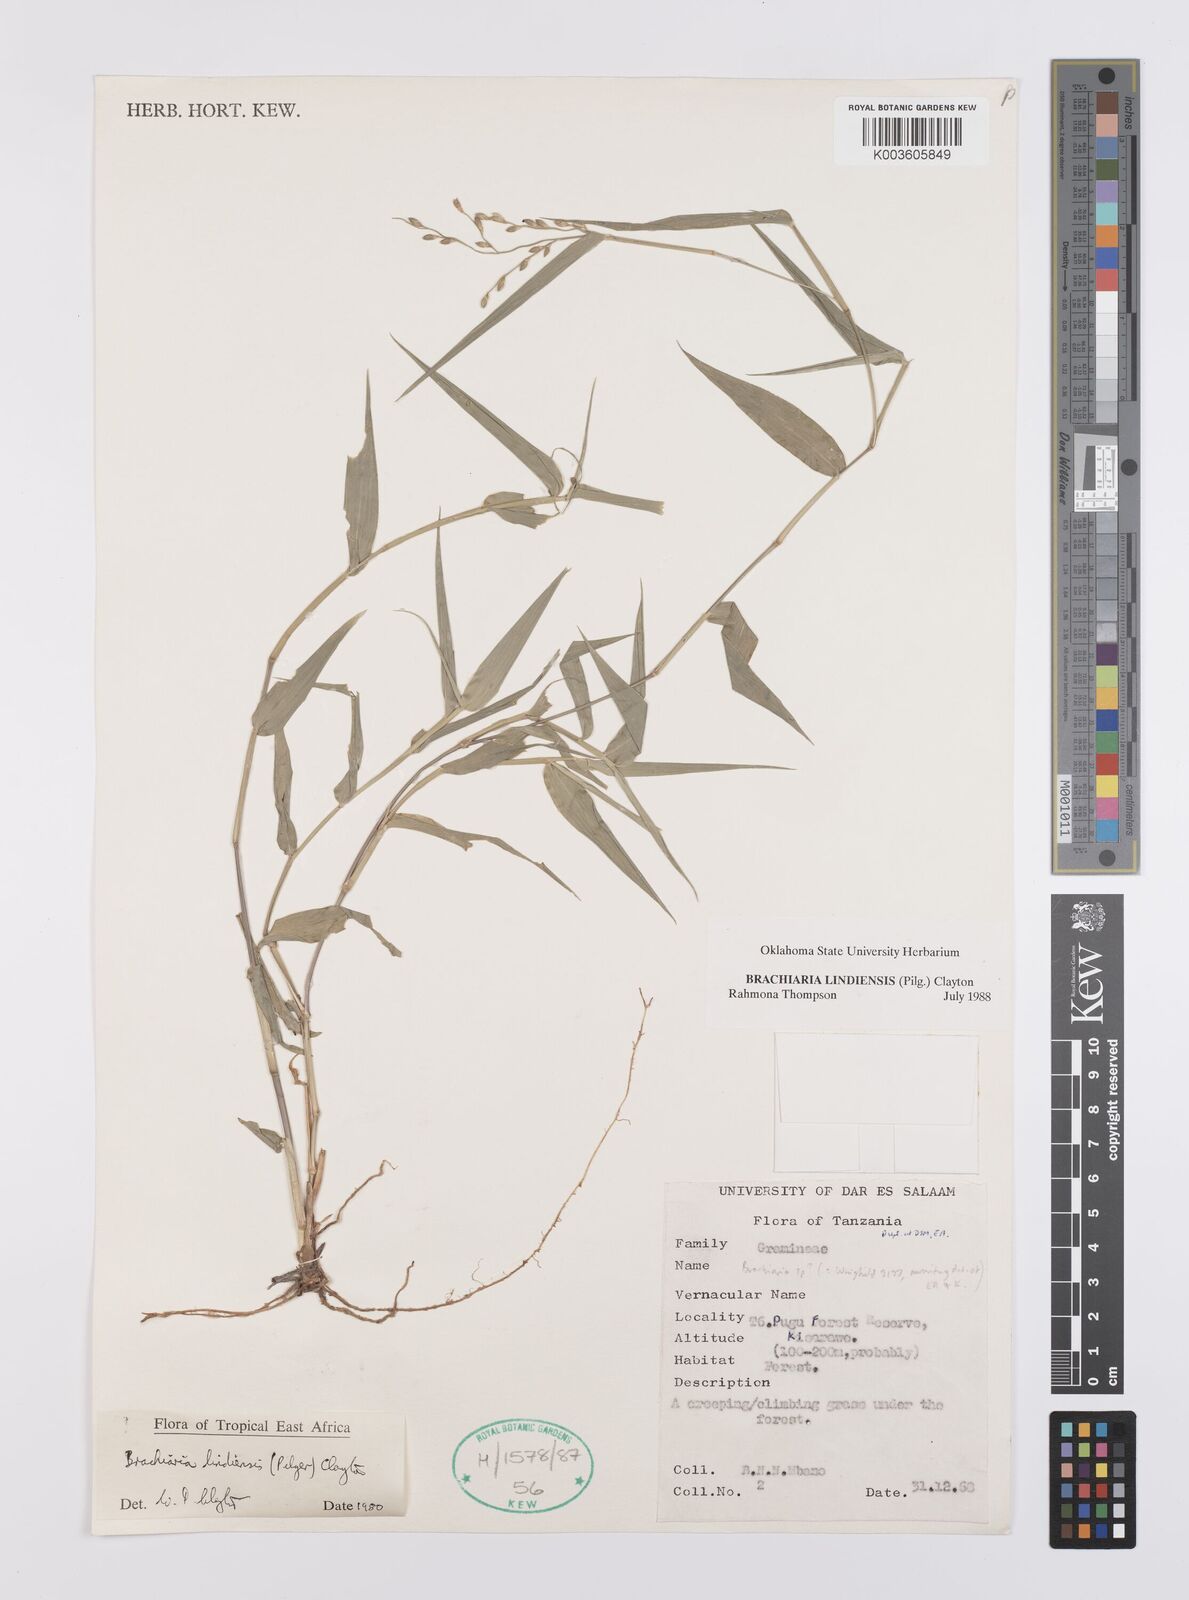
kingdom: Plantae
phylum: Tracheophyta
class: Liliopsida
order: Poales
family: Poaceae
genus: Urochloa
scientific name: Urochloa Brachiaria lindiensis
